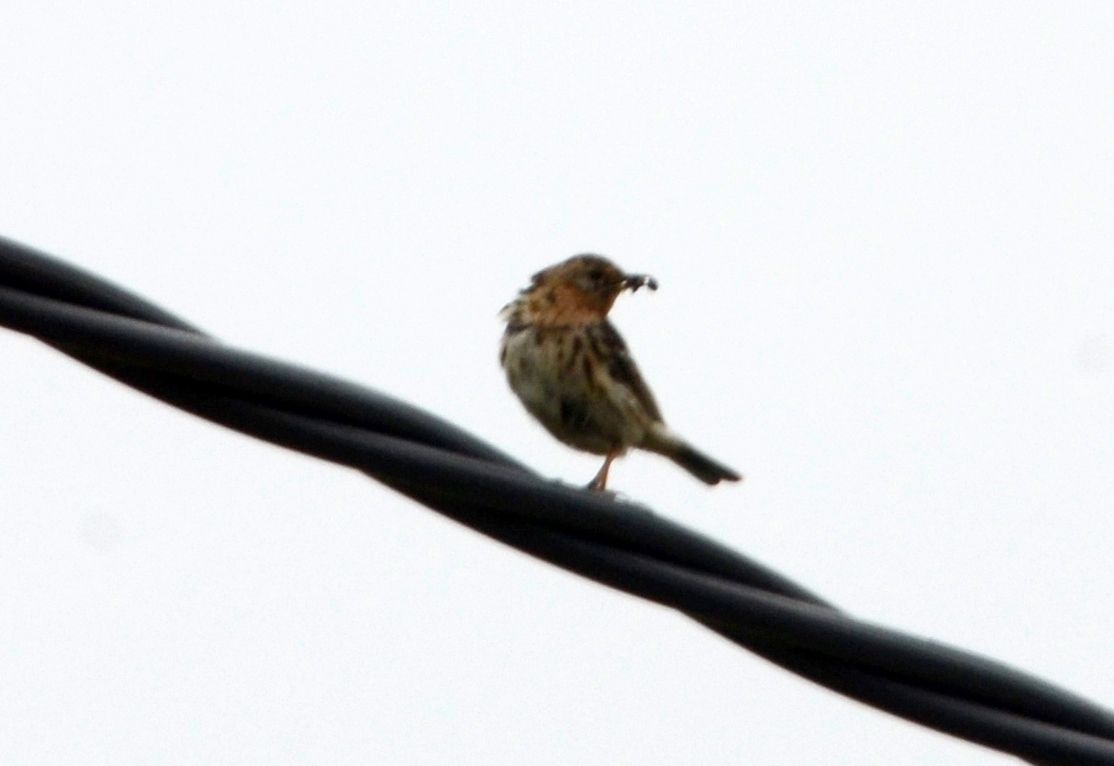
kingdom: Animalia
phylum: Chordata
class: Aves
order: Passeriformes
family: Motacillidae
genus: Anthus
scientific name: Anthus cervinus
